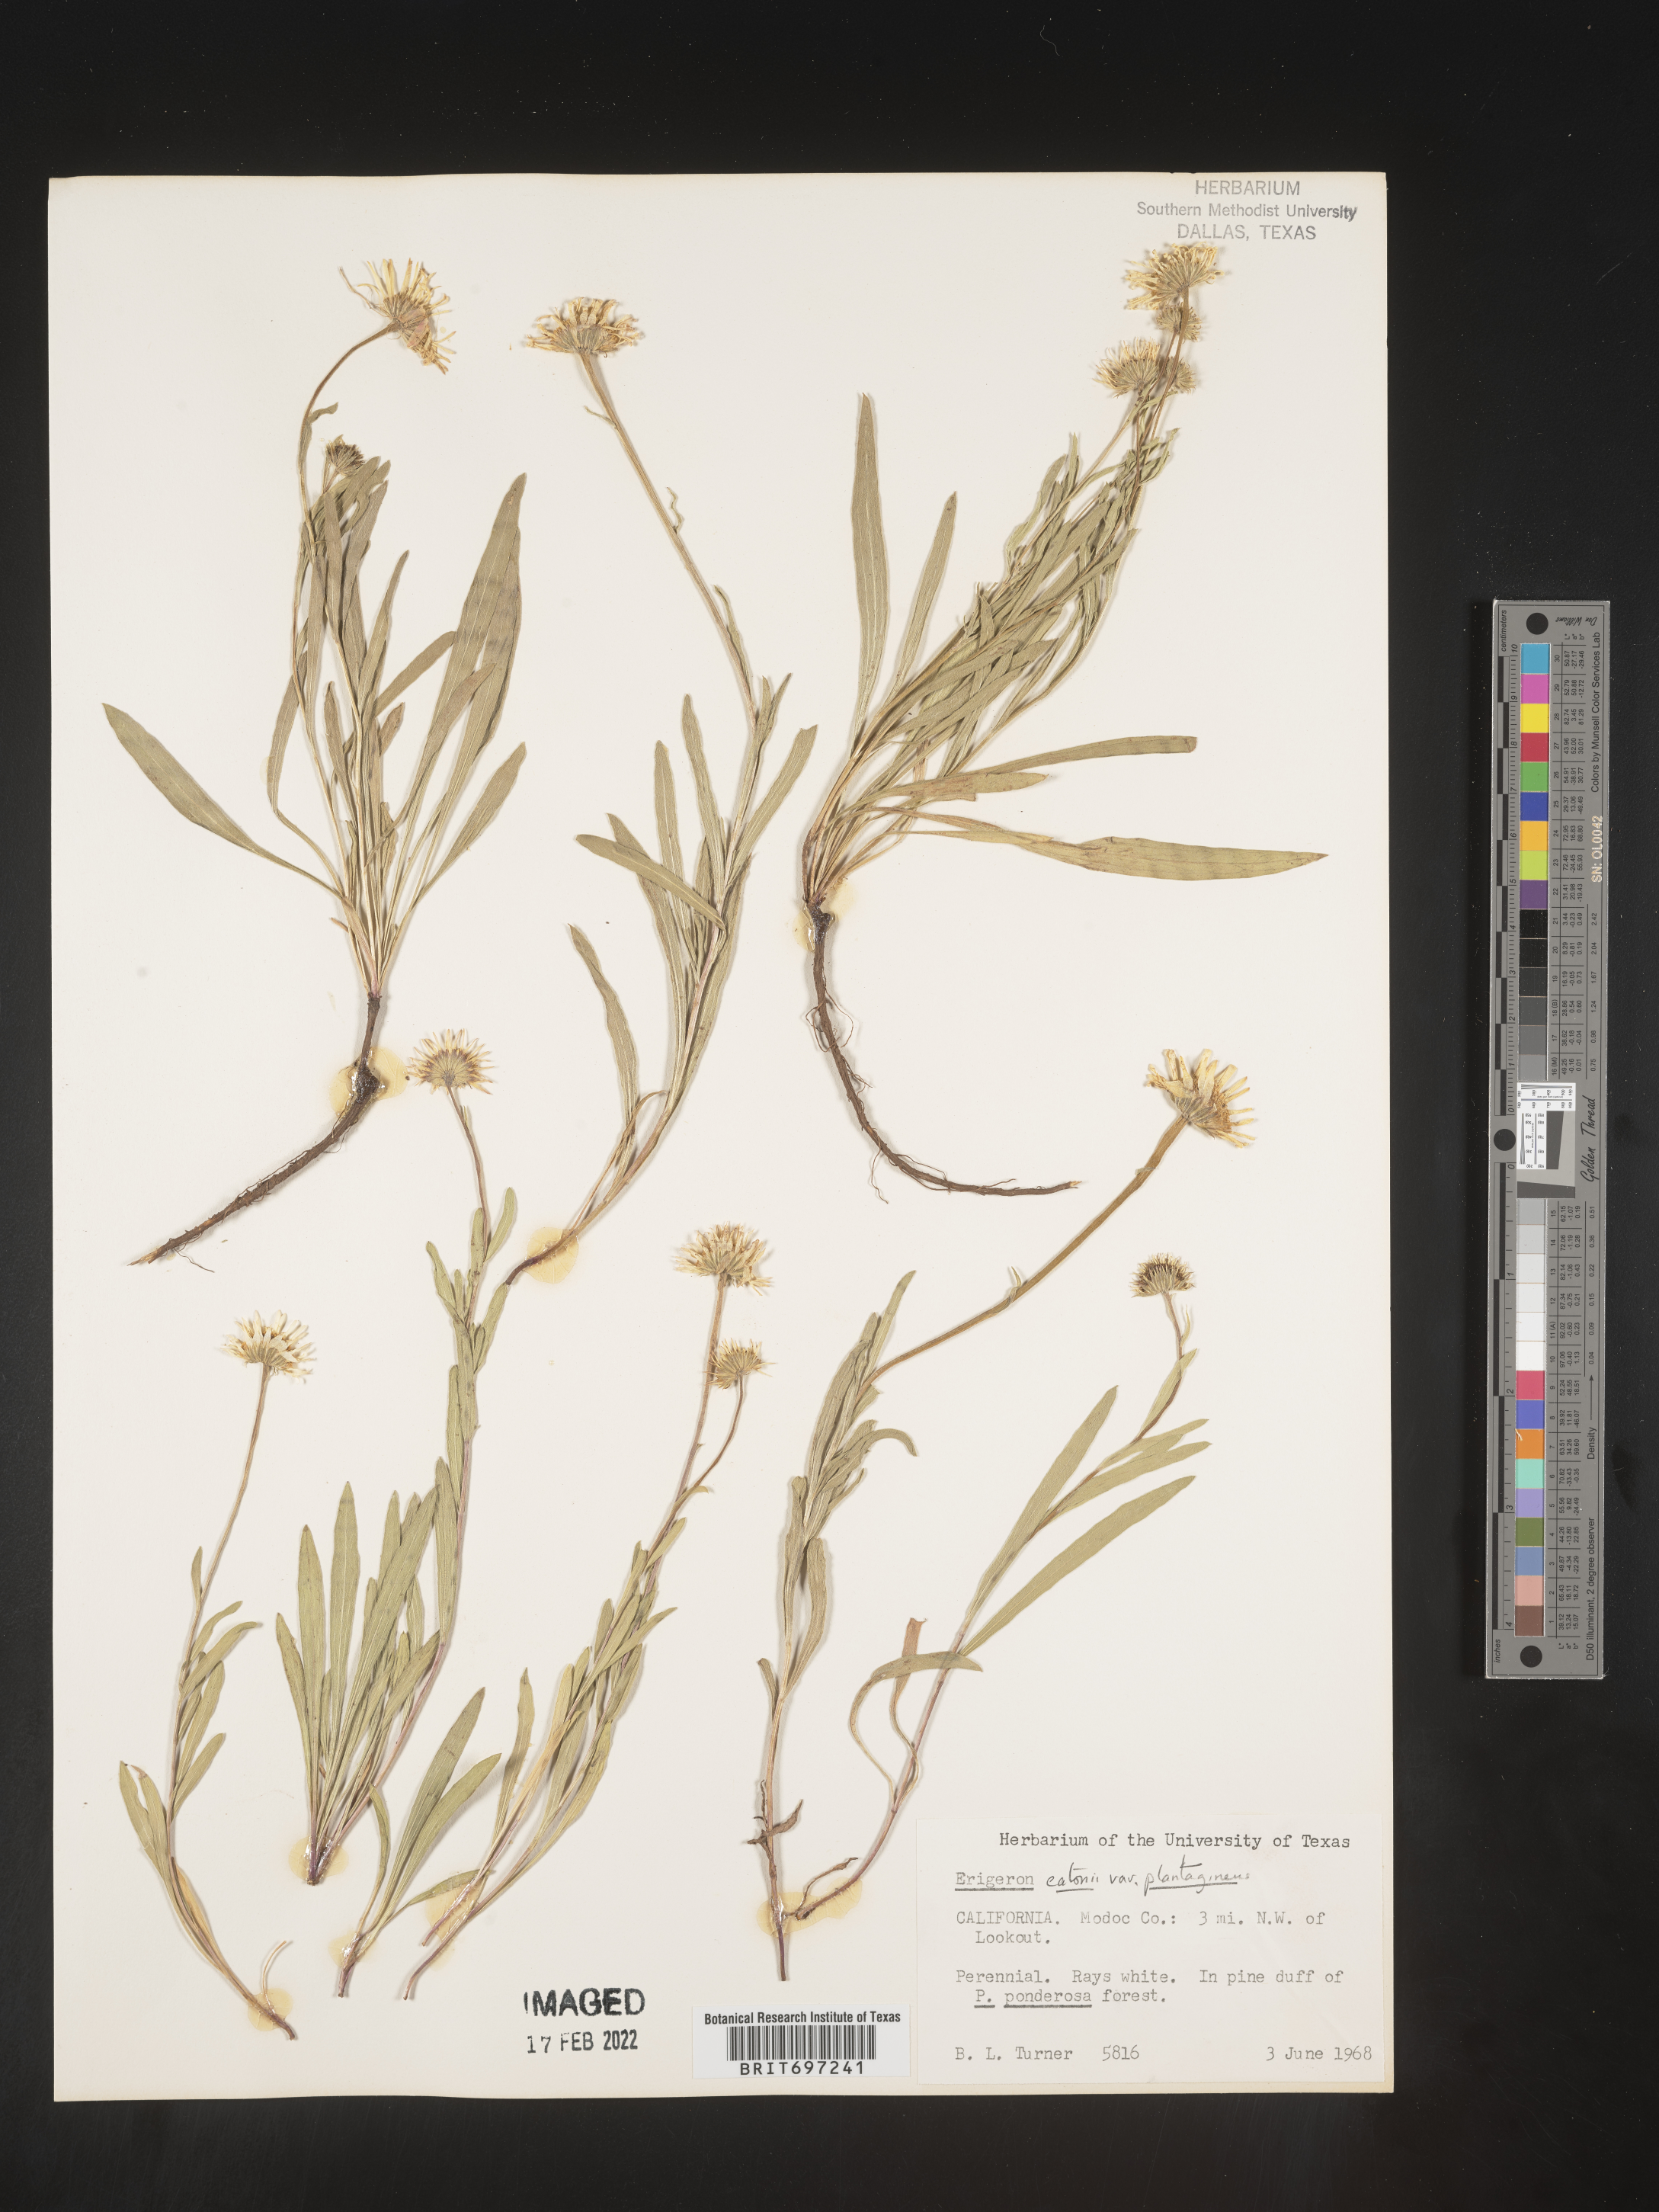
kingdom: Plantae
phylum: Tracheophyta
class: Magnoliopsida
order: Asterales
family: Asteraceae
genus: Erigeron
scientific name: Erigeron eatonii
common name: Eaton's fleabane
